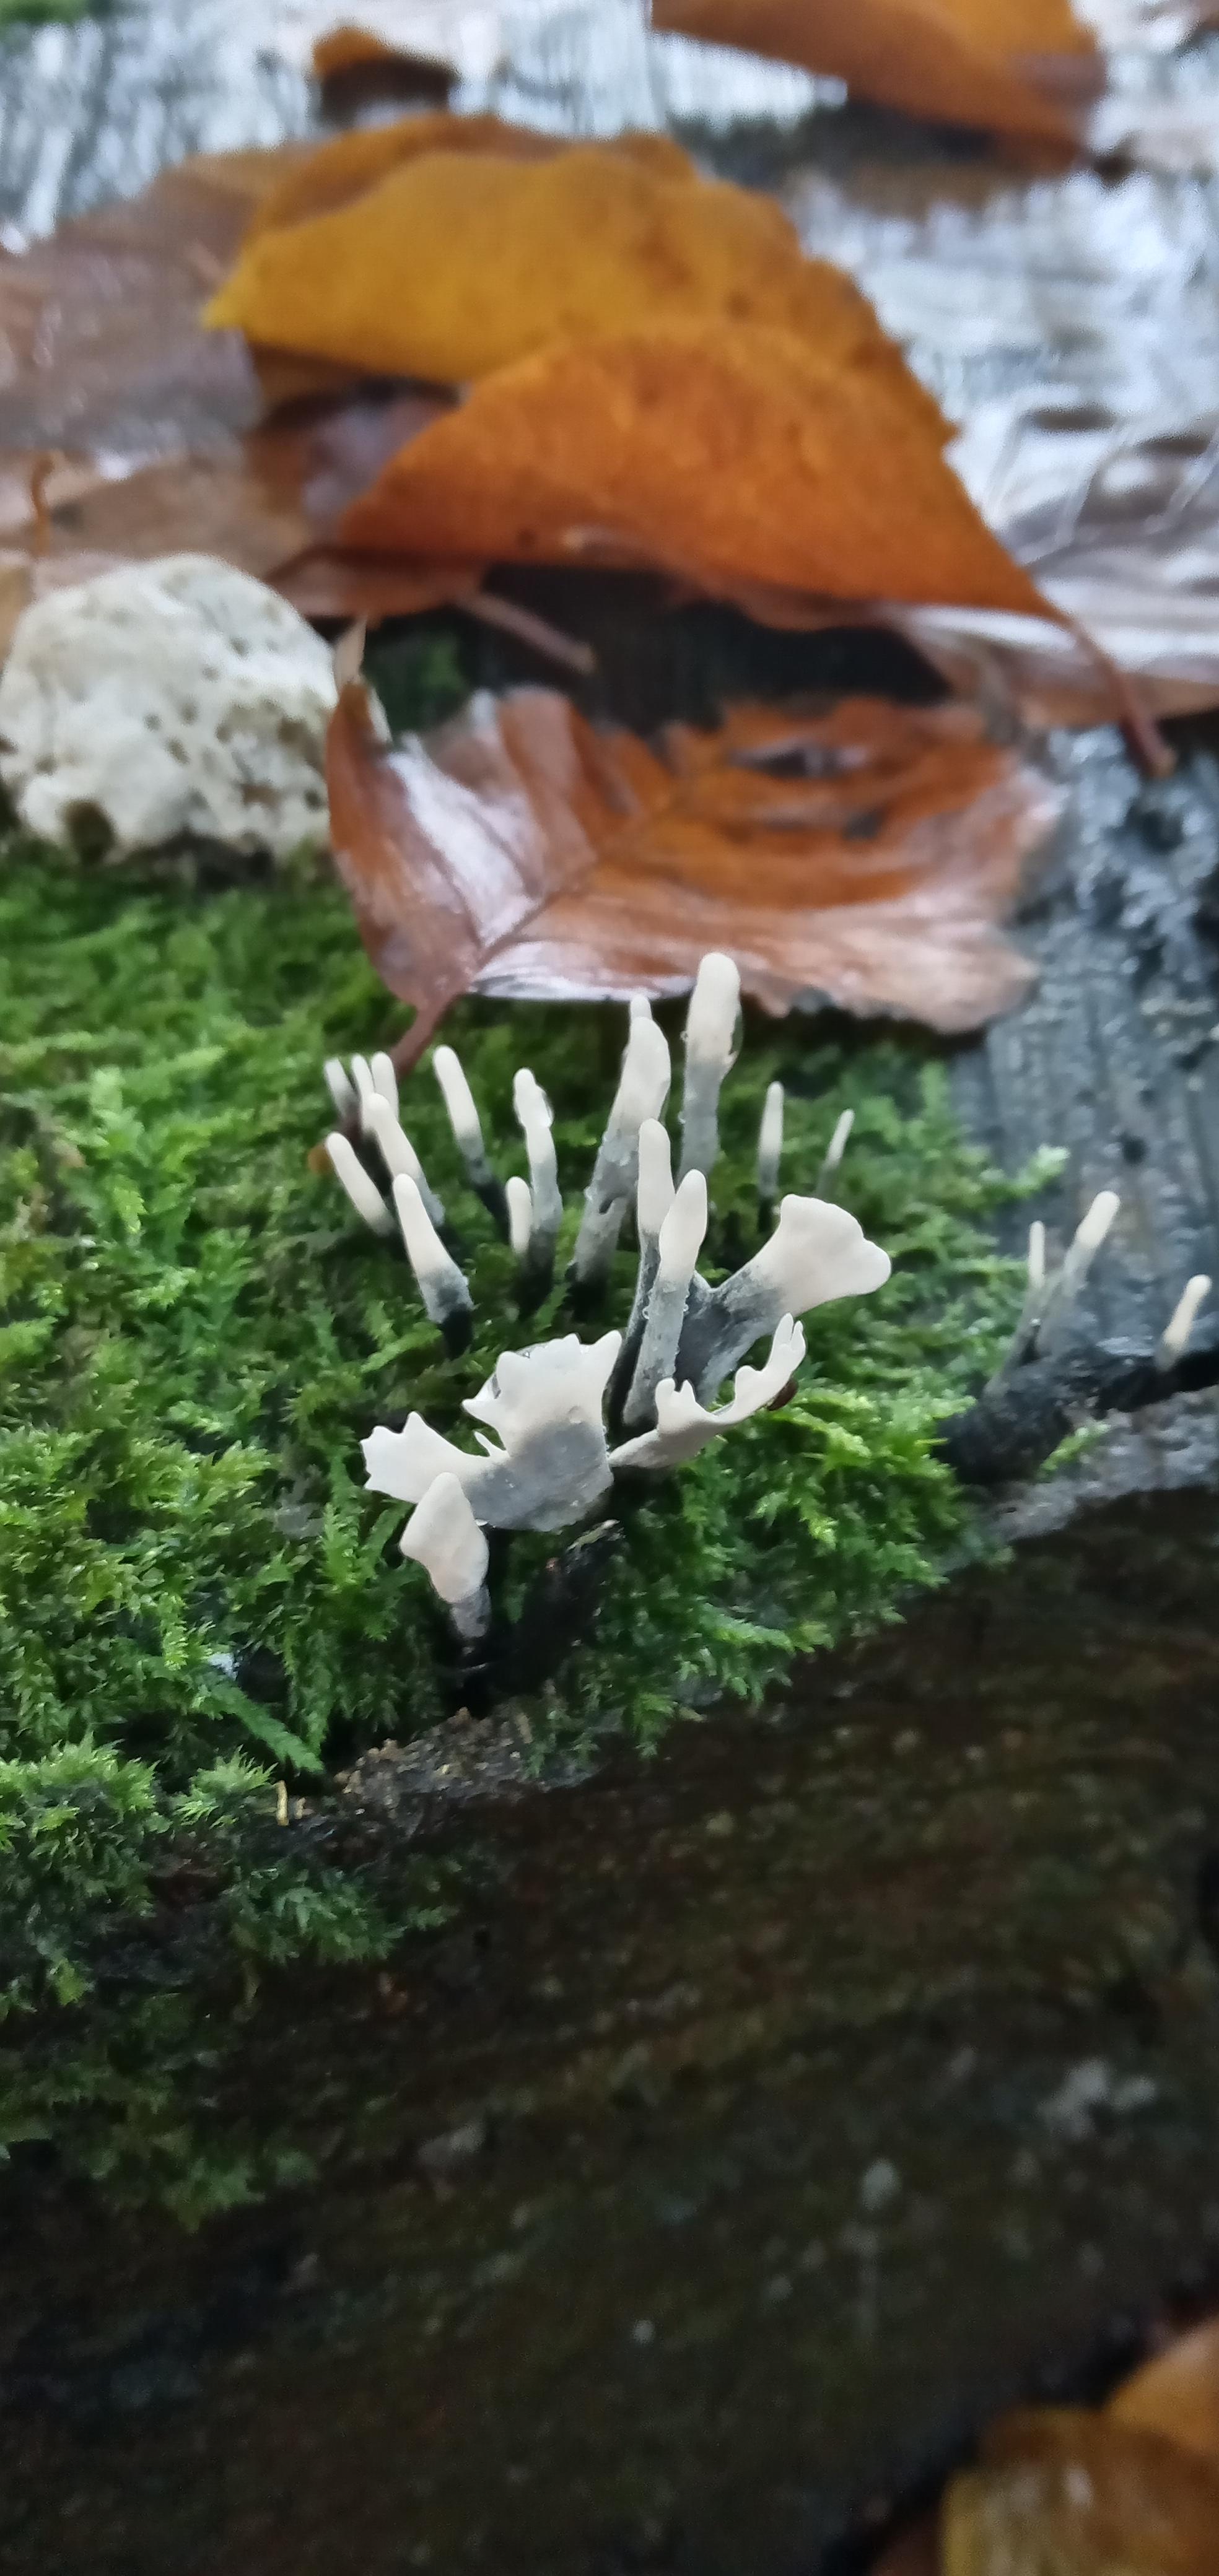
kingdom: Fungi
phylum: Ascomycota
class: Sordariomycetes
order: Xylariales
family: Xylariaceae
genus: Xylaria
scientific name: Xylaria hypoxylon
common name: grenet stødsvamp
